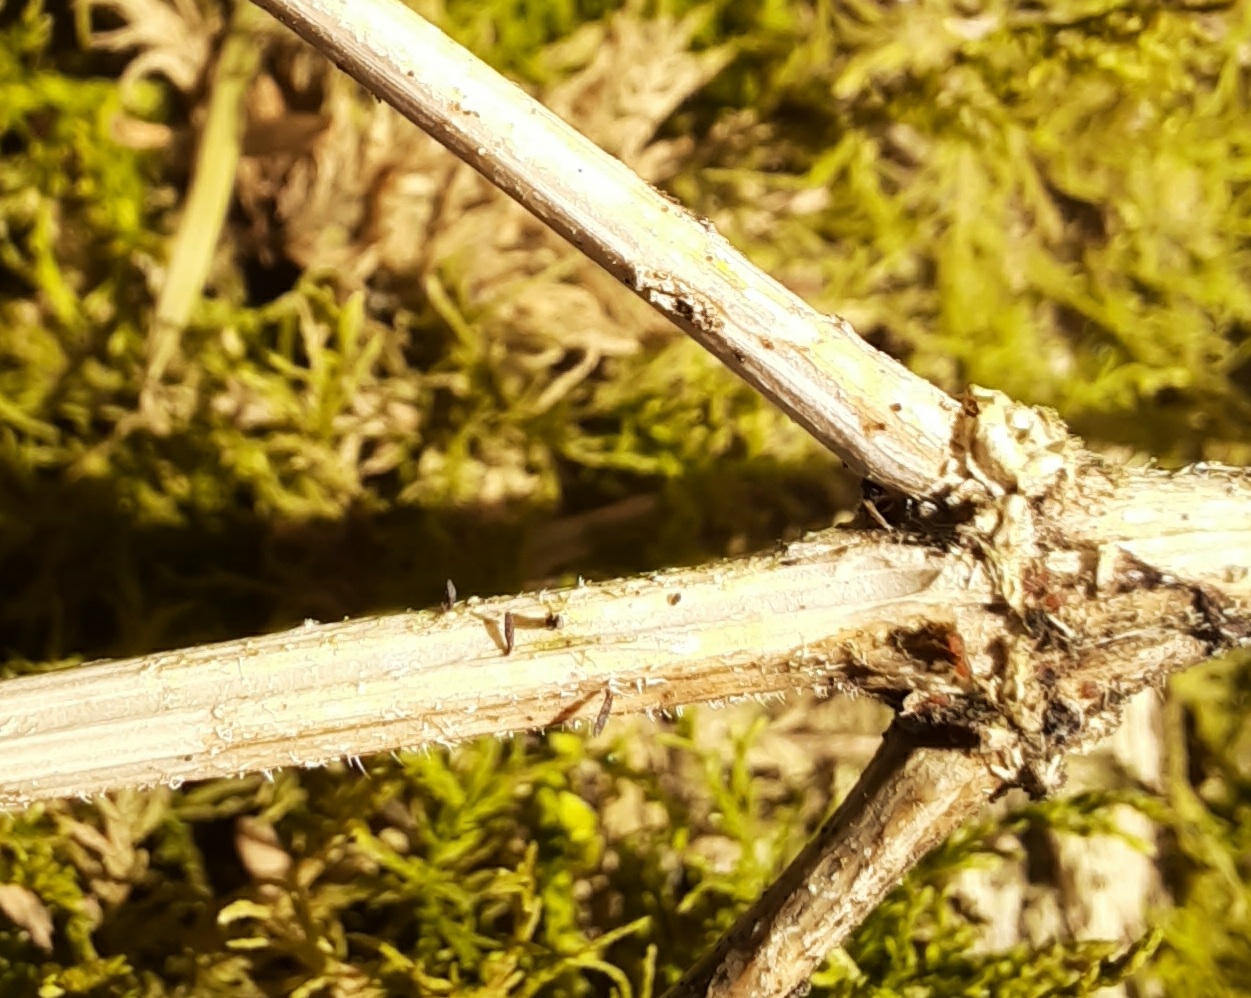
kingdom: Fungi
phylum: Ascomycota
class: Dothideomycetes
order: Acrospermales
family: Acrospermaceae
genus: Acrospermum
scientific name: Acrospermum compressum
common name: nælde-stængeltunge
